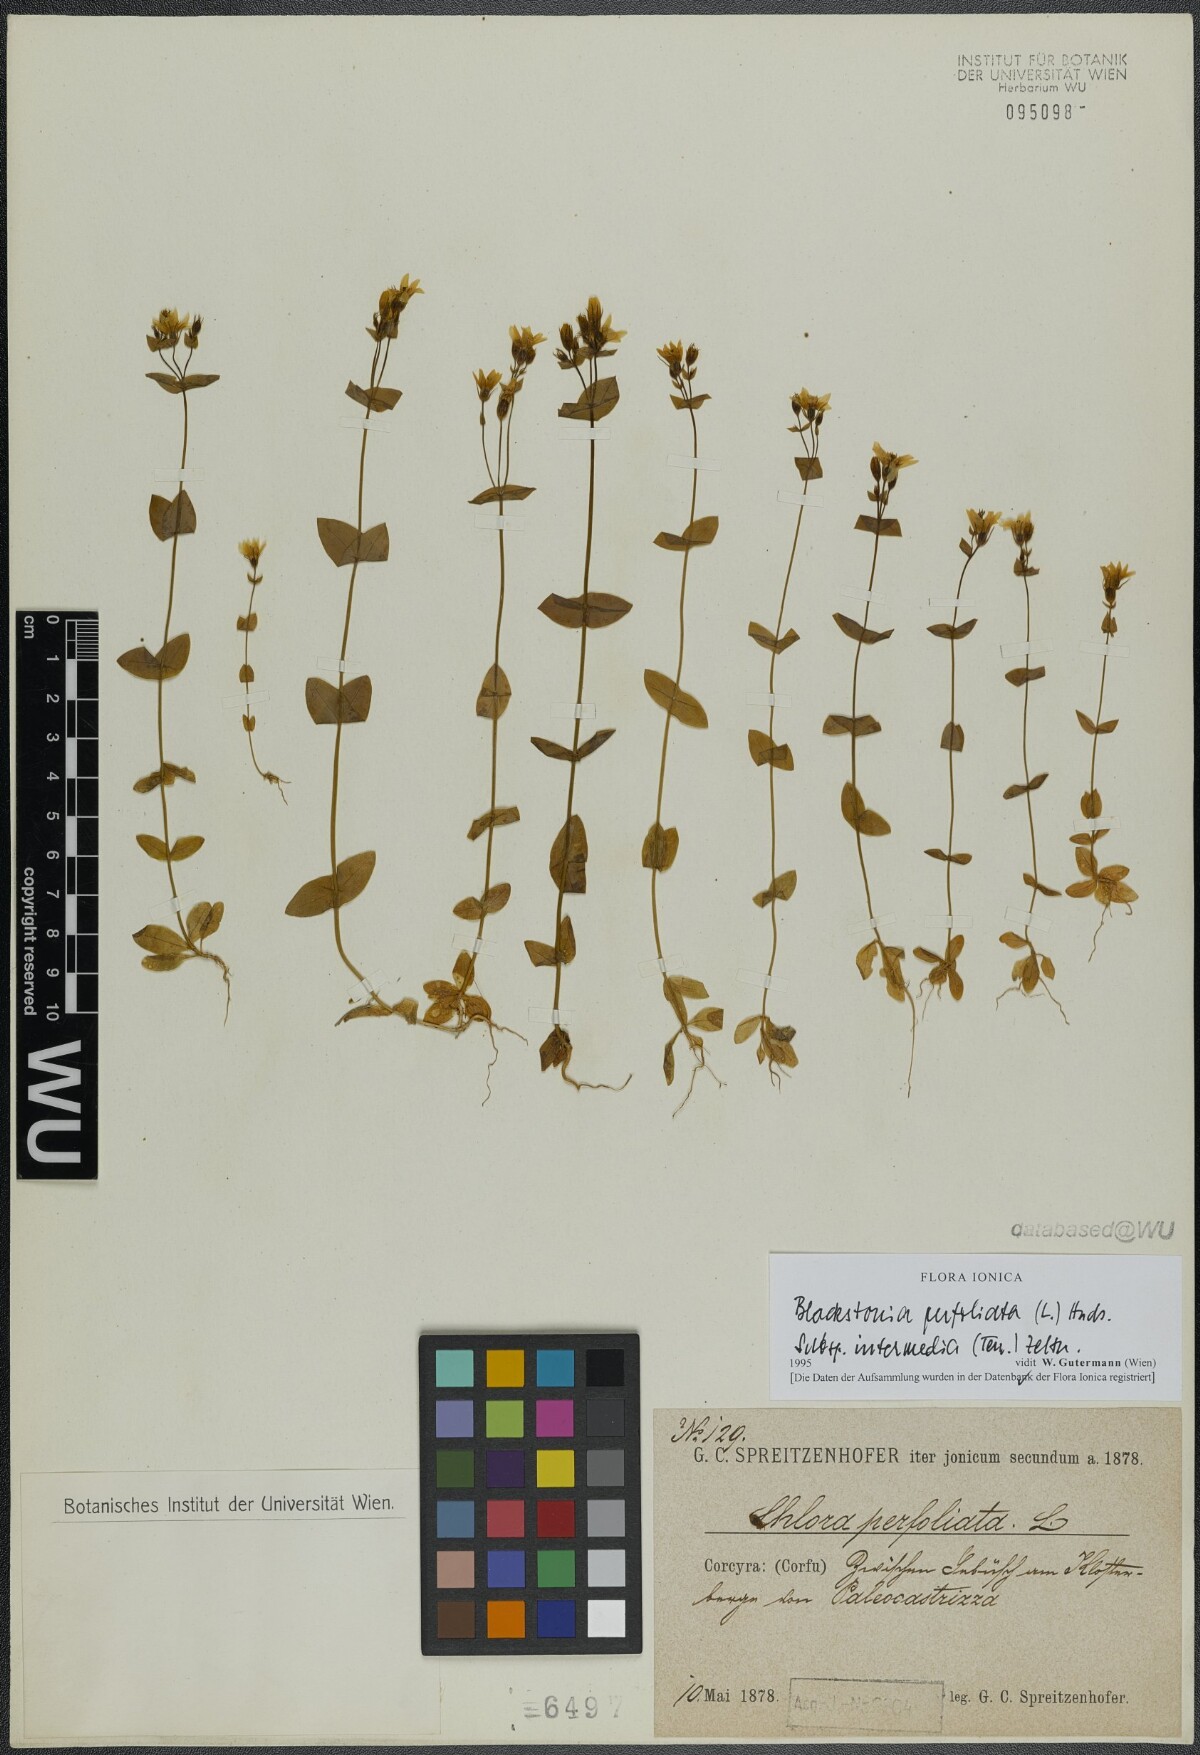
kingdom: Plantae
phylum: Tracheophyta
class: Magnoliopsida
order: Gentianales
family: Gentianaceae
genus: Blackstonia
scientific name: Blackstonia perfoliata
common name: Yellow-wort
